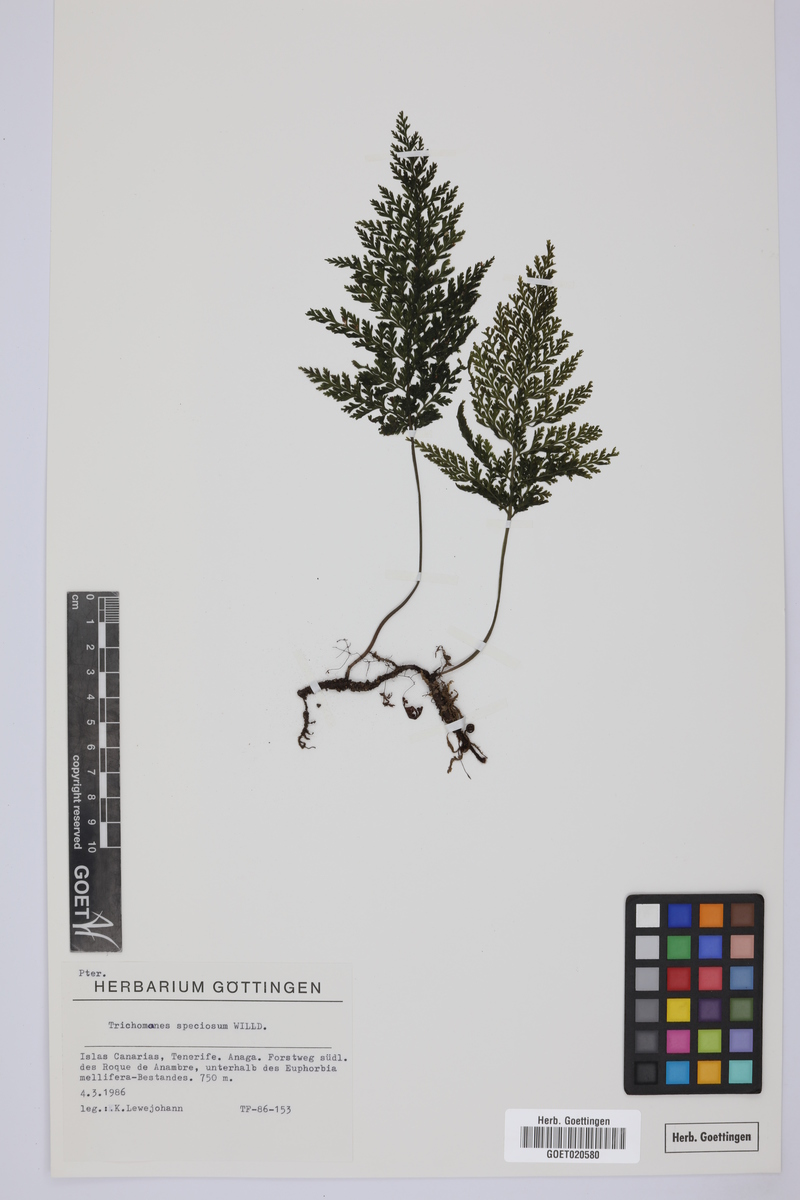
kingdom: Plantae
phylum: Tracheophyta
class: Polypodiopsida
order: Hymenophyllales
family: Hymenophyllaceae
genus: Vandenboschia
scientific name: Vandenboschia speciosa
